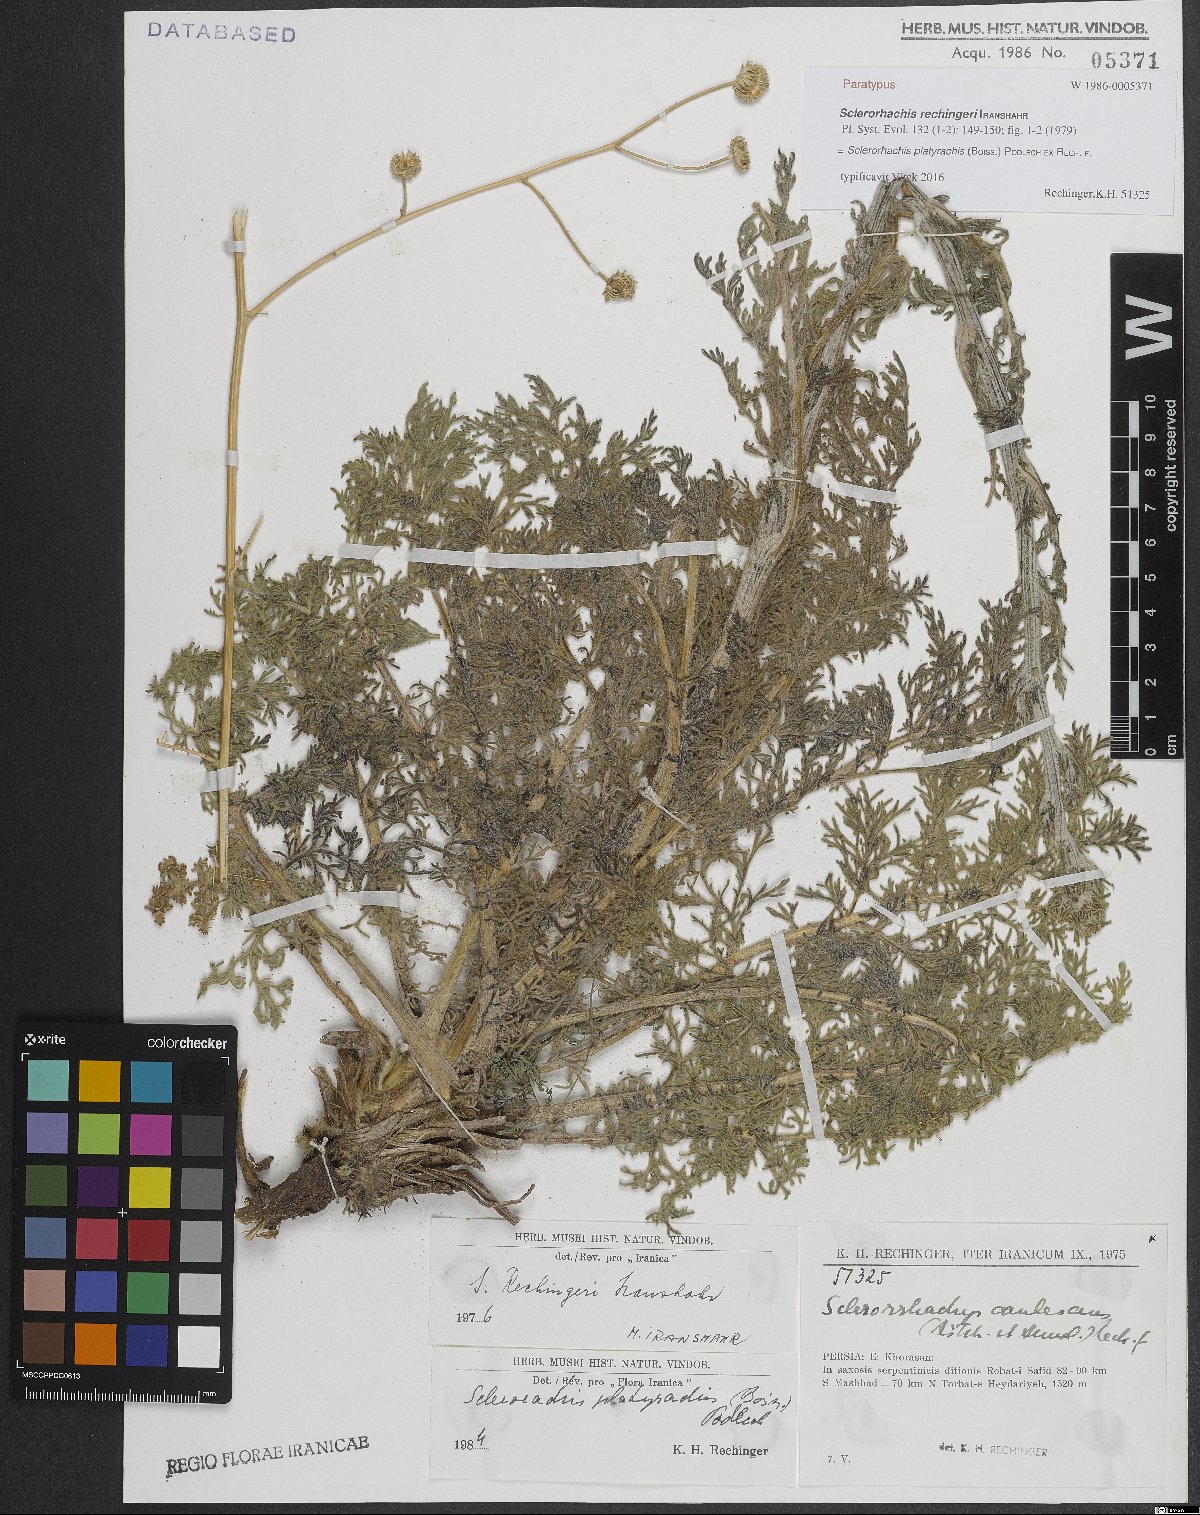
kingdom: Plantae
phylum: Tracheophyta
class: Magnoliopsida
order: Asterales
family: Asteraceae
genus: Sclerorhachis
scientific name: Sclerorhachis platyrachis
